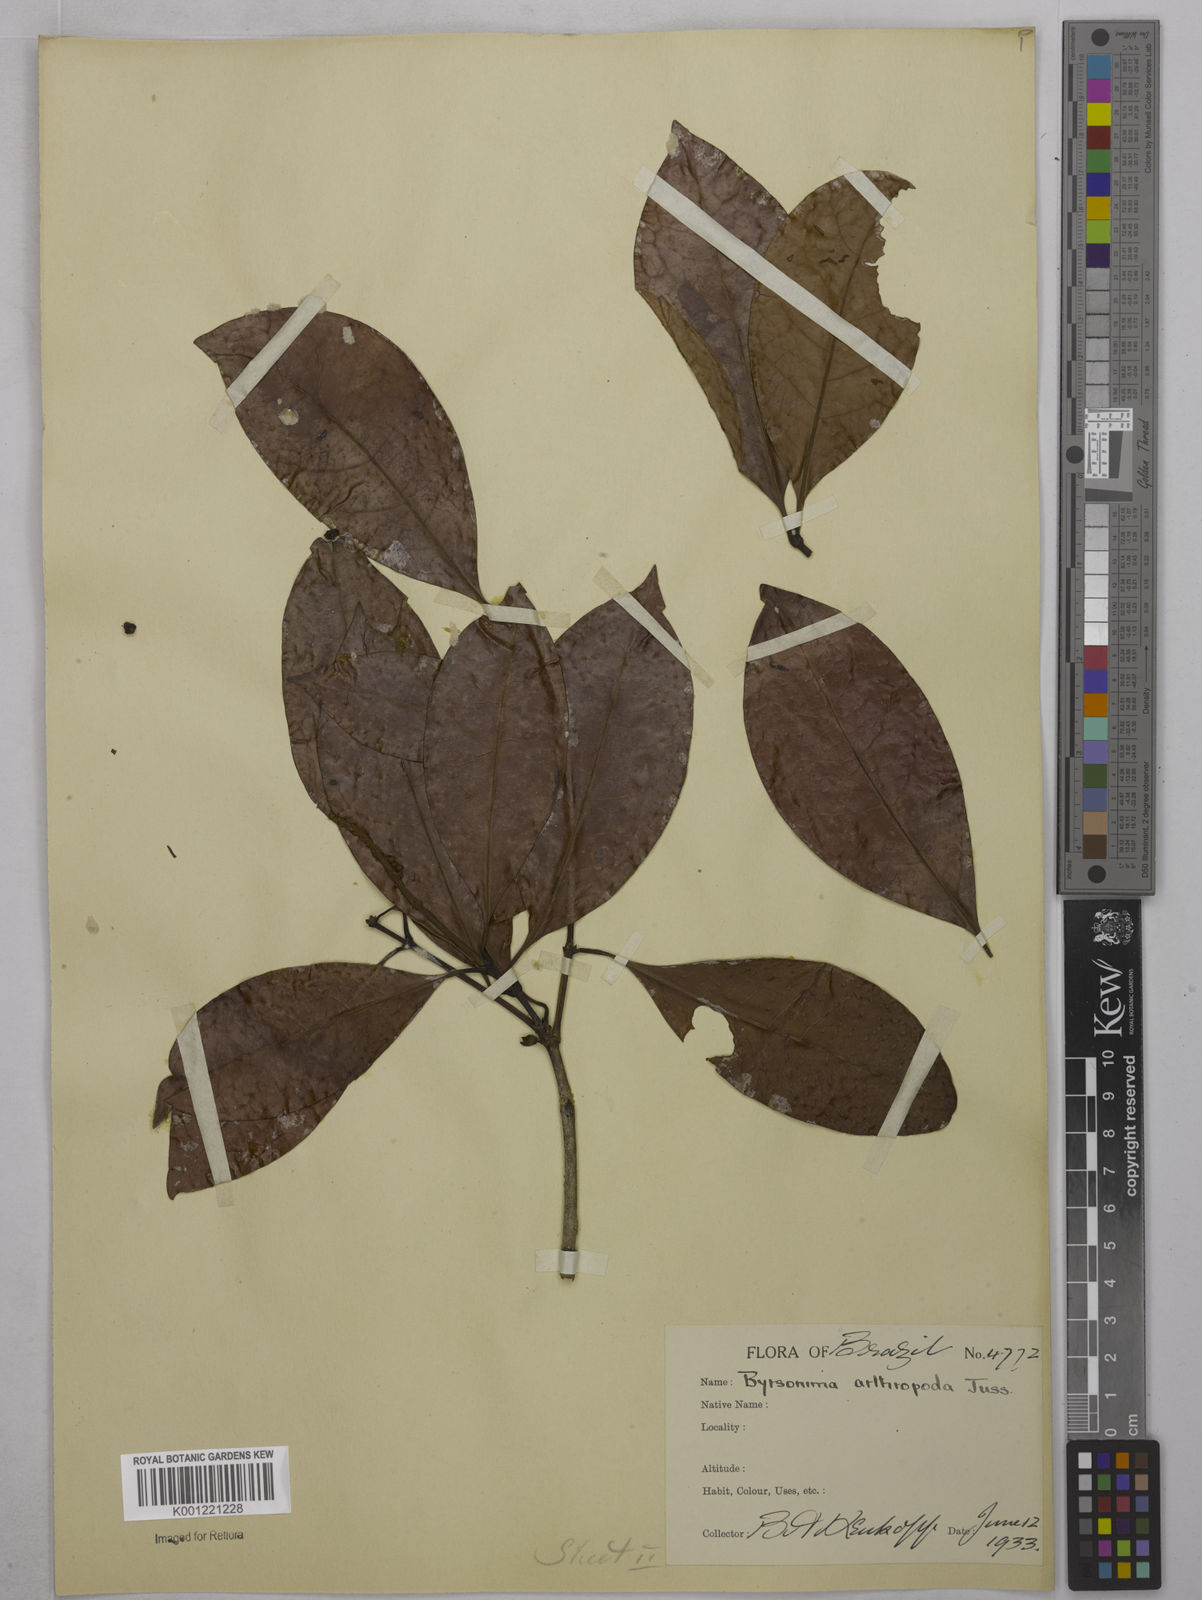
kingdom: Plantae
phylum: Tracheophyta
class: Magnoliopsida
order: Malpighiales
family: Malpighiaceae
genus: Byrsonima
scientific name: Byrsonima arthropoda
